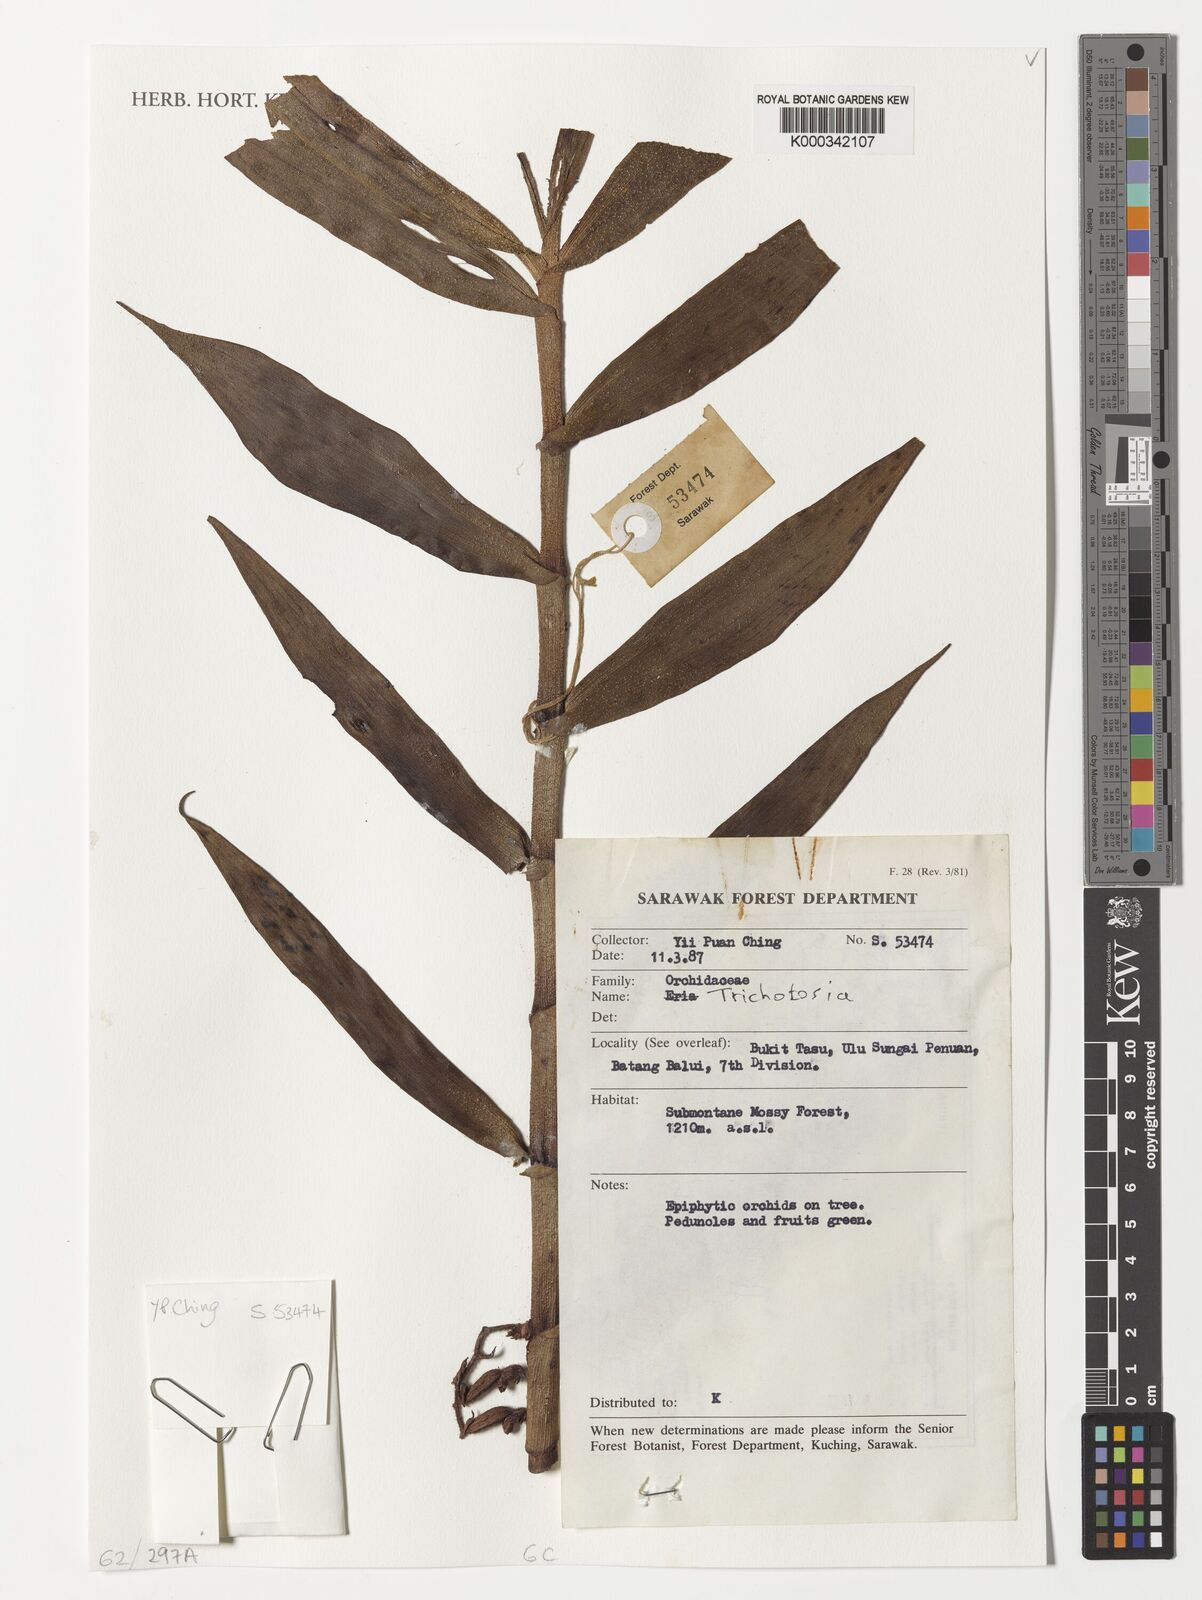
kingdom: Plantae
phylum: Tracheophyta
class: Liliopsida
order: Asparagales
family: Orchidaceae
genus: Trichotosia
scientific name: Trichotosia
